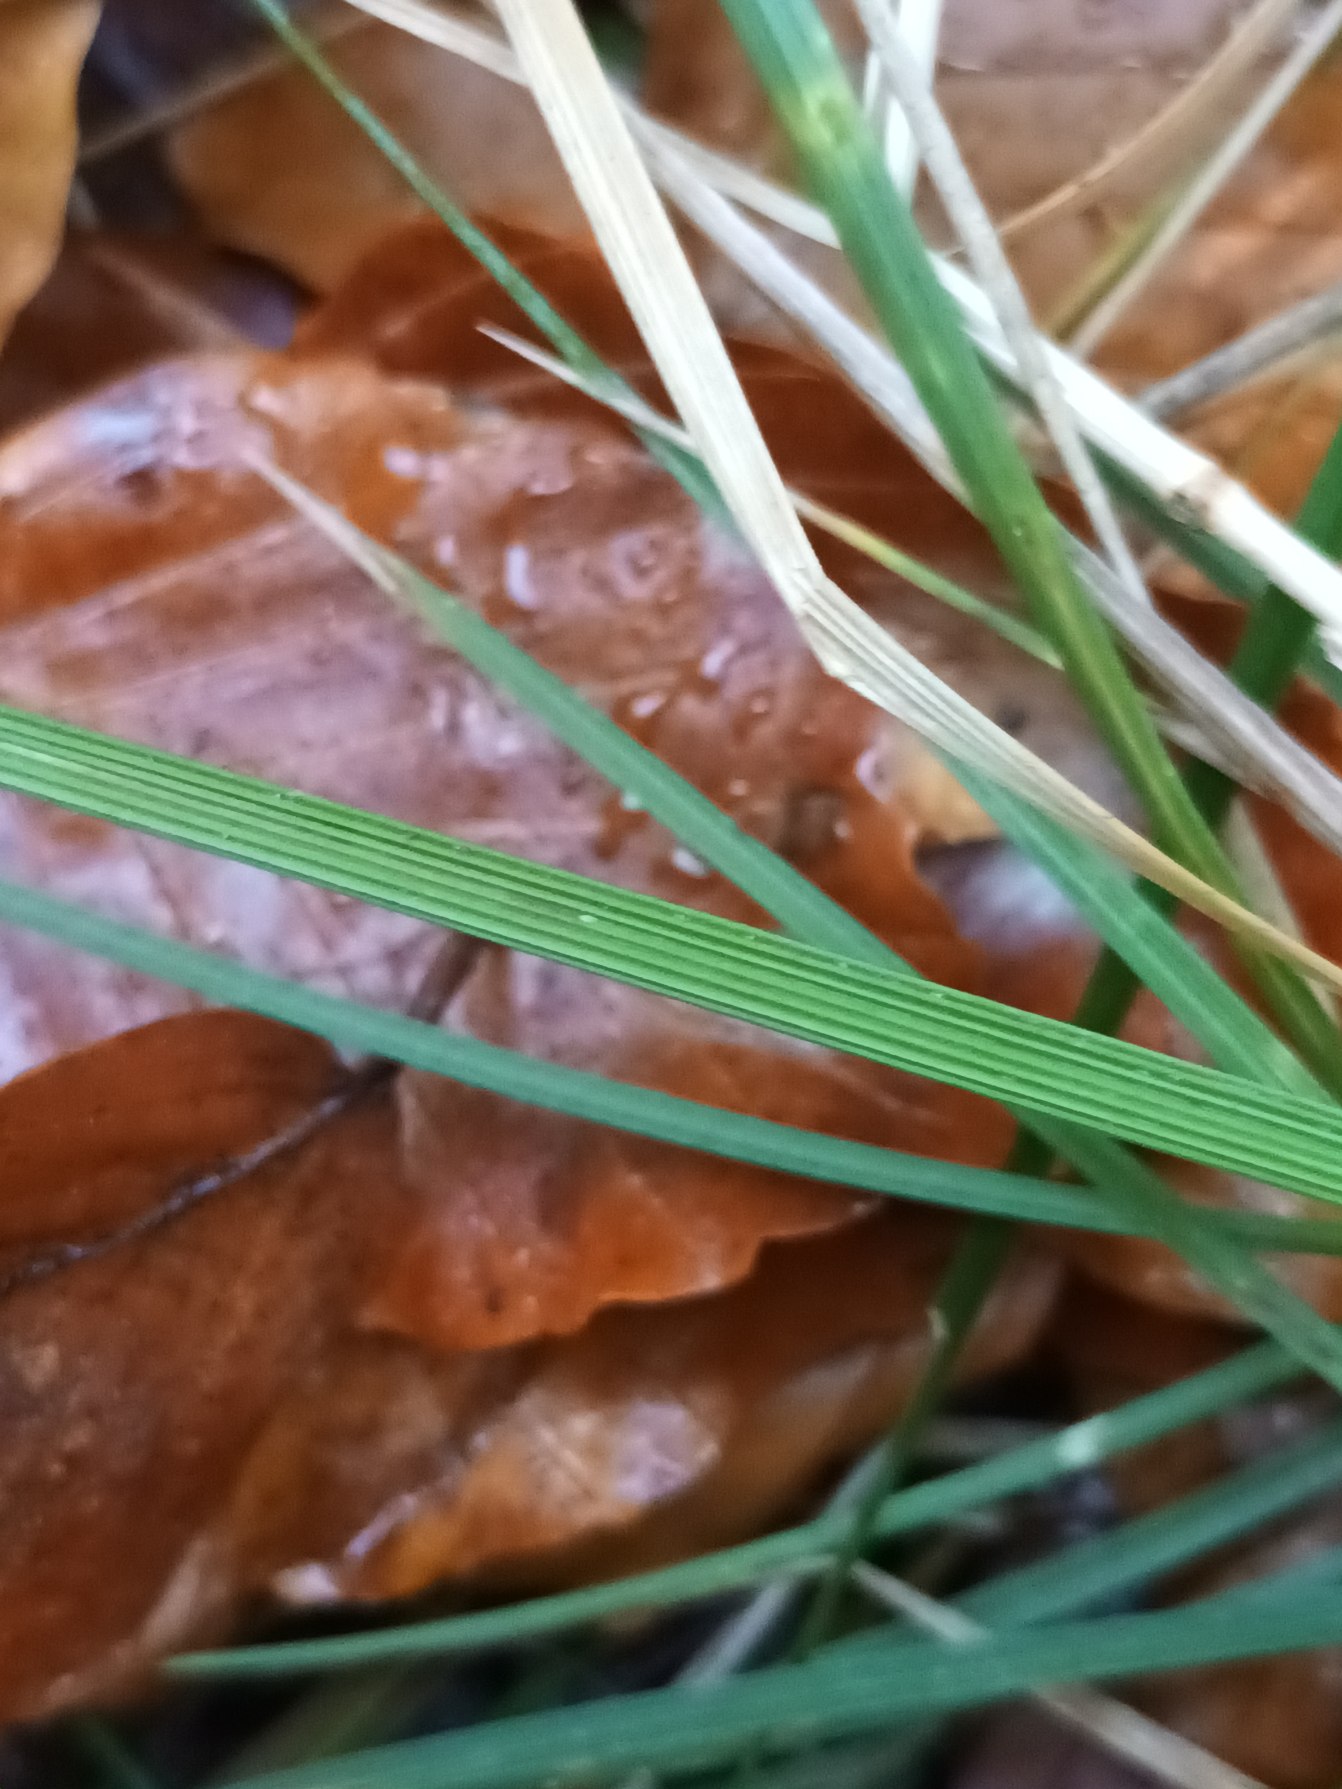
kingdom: Plantae
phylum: Tracheophyta
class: Liliopsida
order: Poales
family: Poaceae
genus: Deschampsia
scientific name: Deschampsia cespitosa
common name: Mose-bunke
